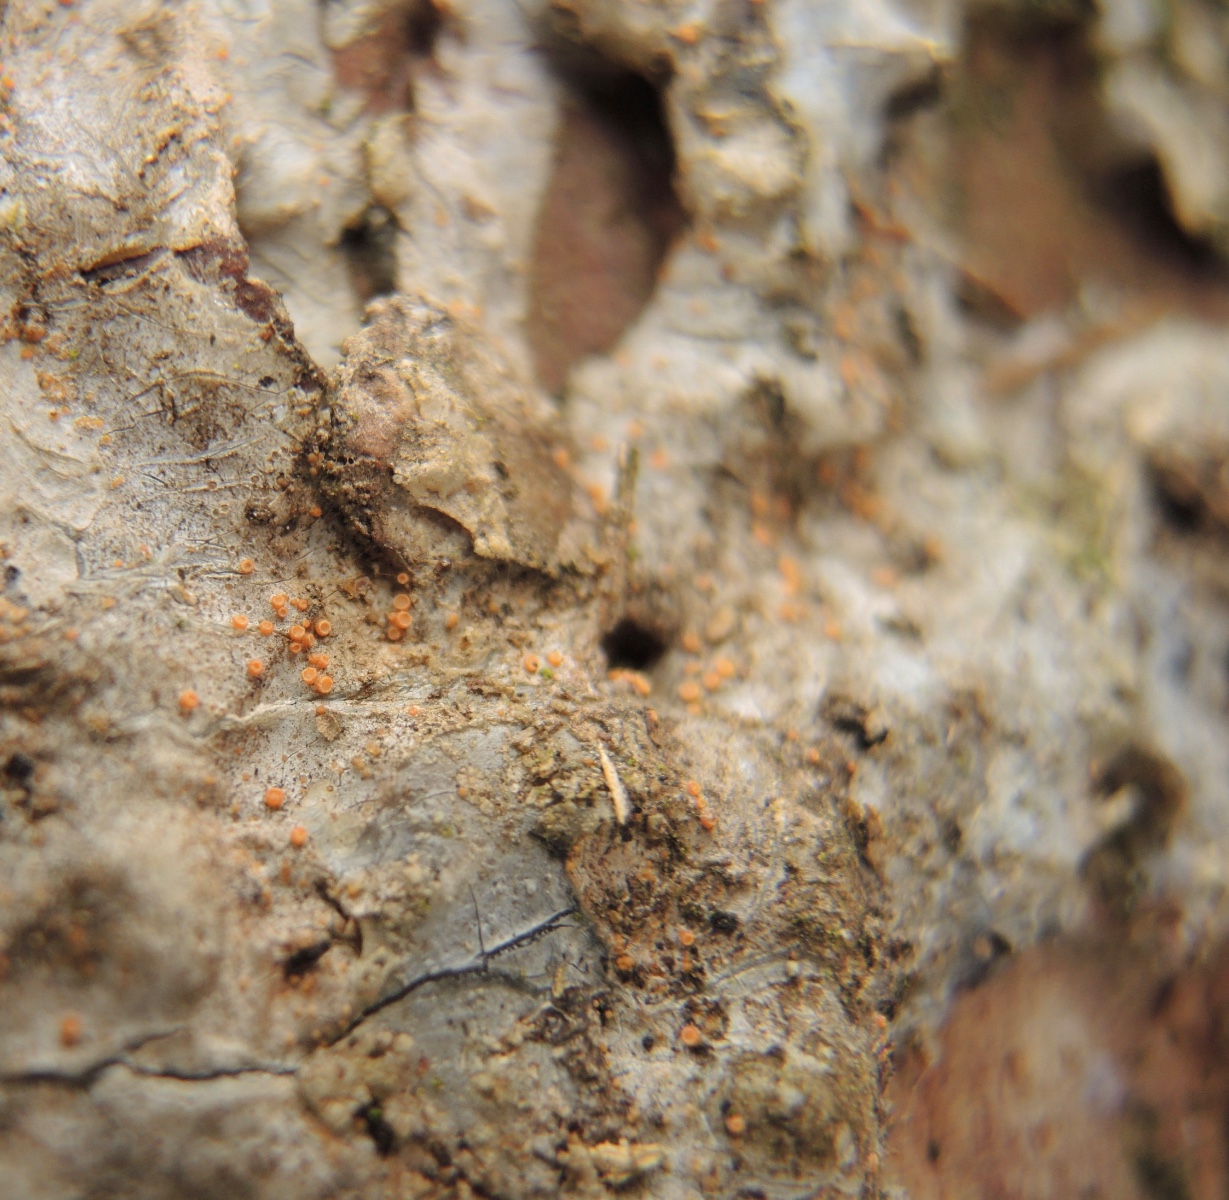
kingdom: Fungi
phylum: Ascomycota
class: Sareomycetes
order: Sareales
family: Sareaceae
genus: Sarea
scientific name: Sarea resinae
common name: orangegul harpiksskive
